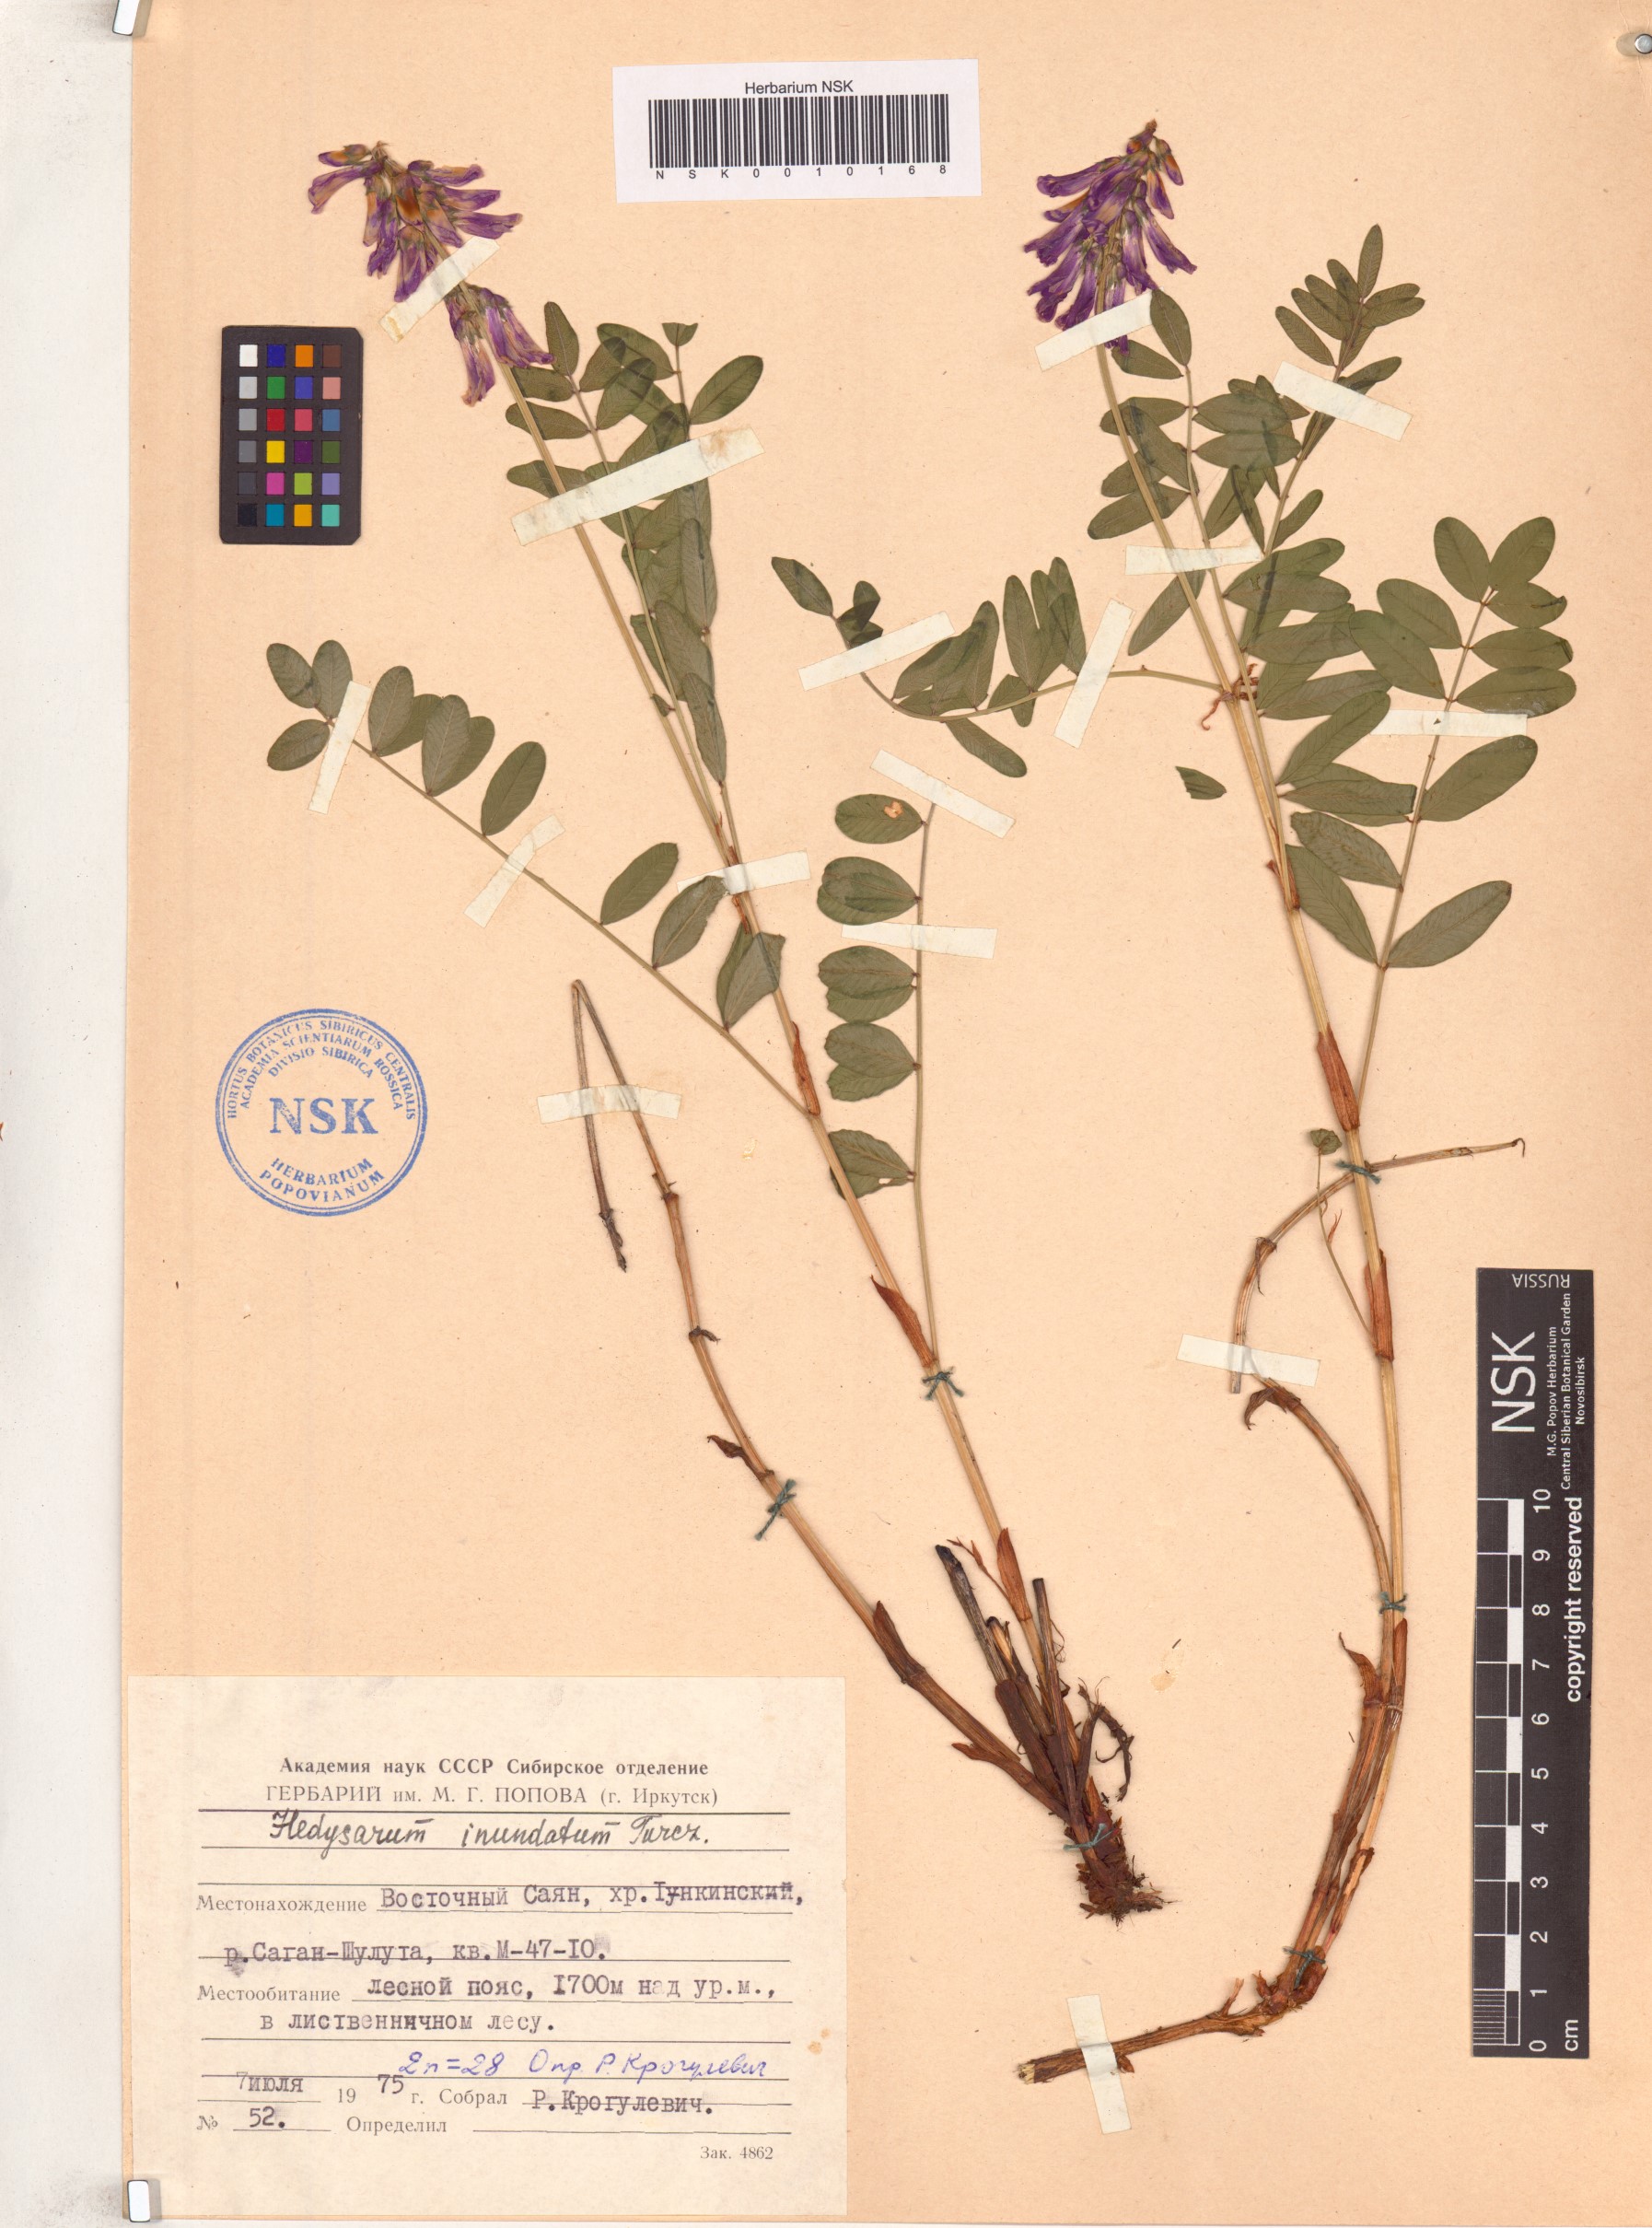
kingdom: Plantae
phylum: Tracheophyta
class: Magnoliopsida
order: Fabales
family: Fabaceae
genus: Hedysarum
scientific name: Hedysarum inundatum
